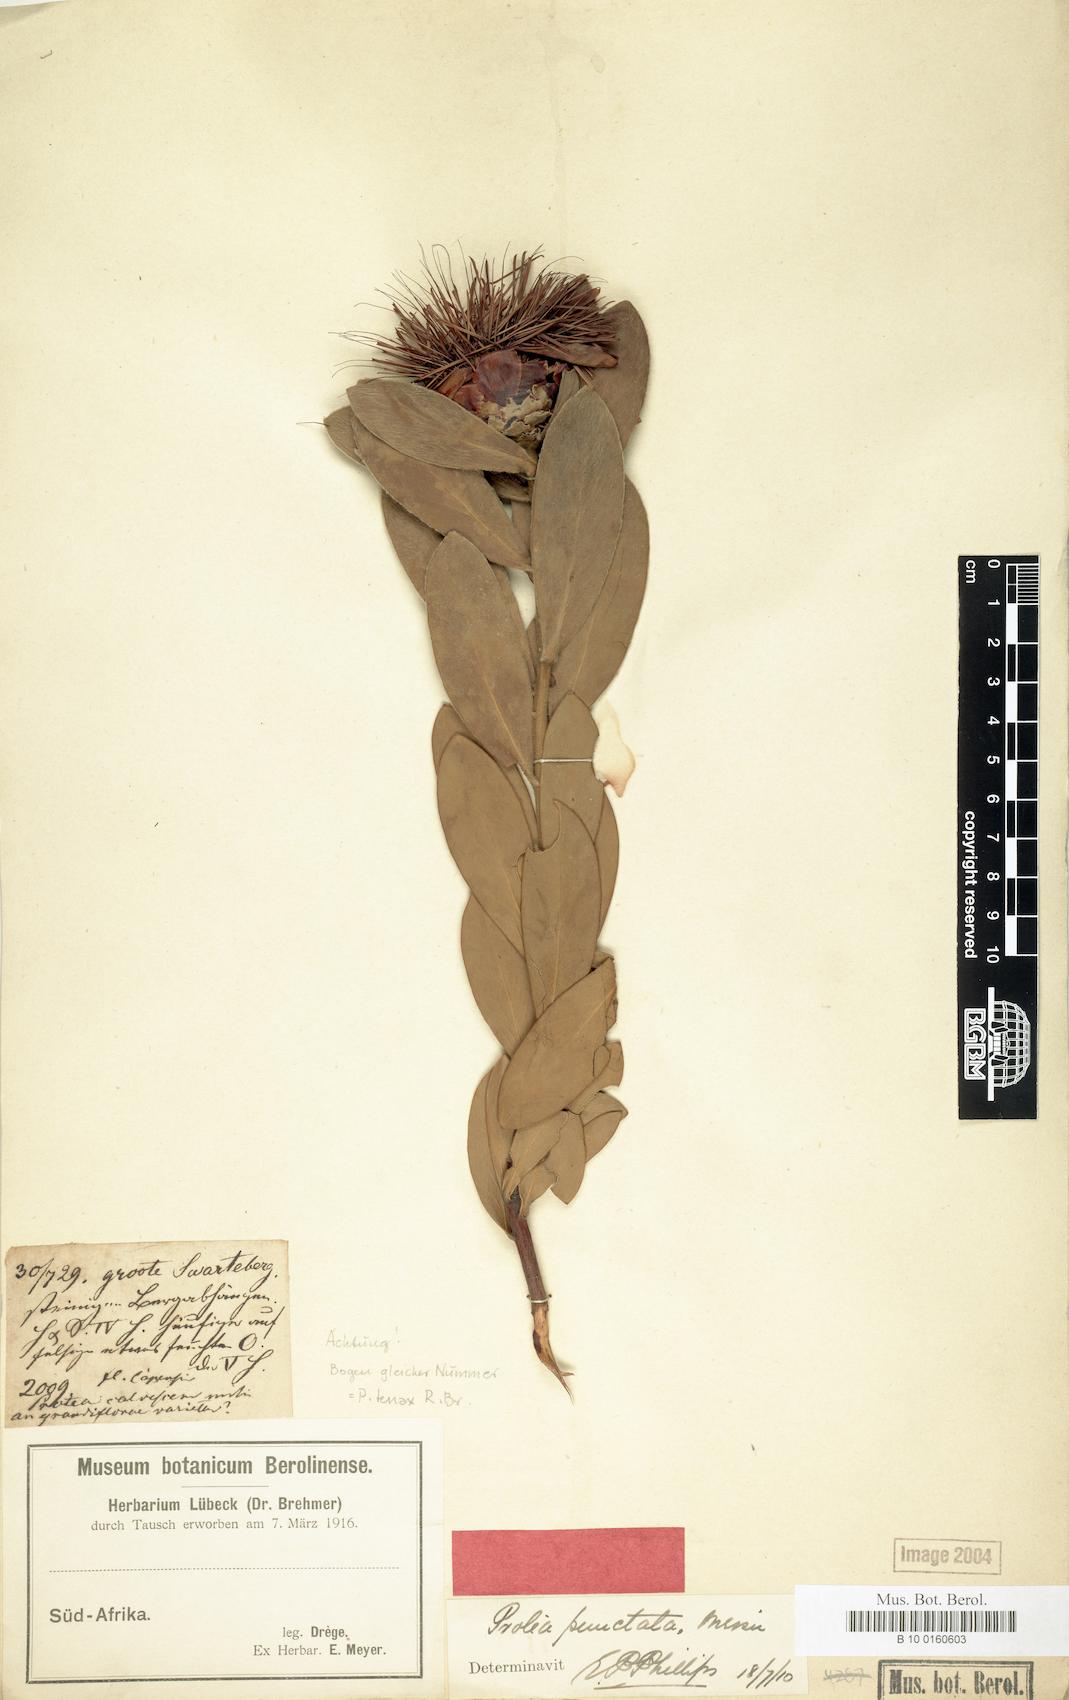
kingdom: Plantae
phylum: Tracheophyta
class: Magnoliopsida
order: Proteales
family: Proteaceae
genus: Protea
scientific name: Protea punctata
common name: Water sugarbush
